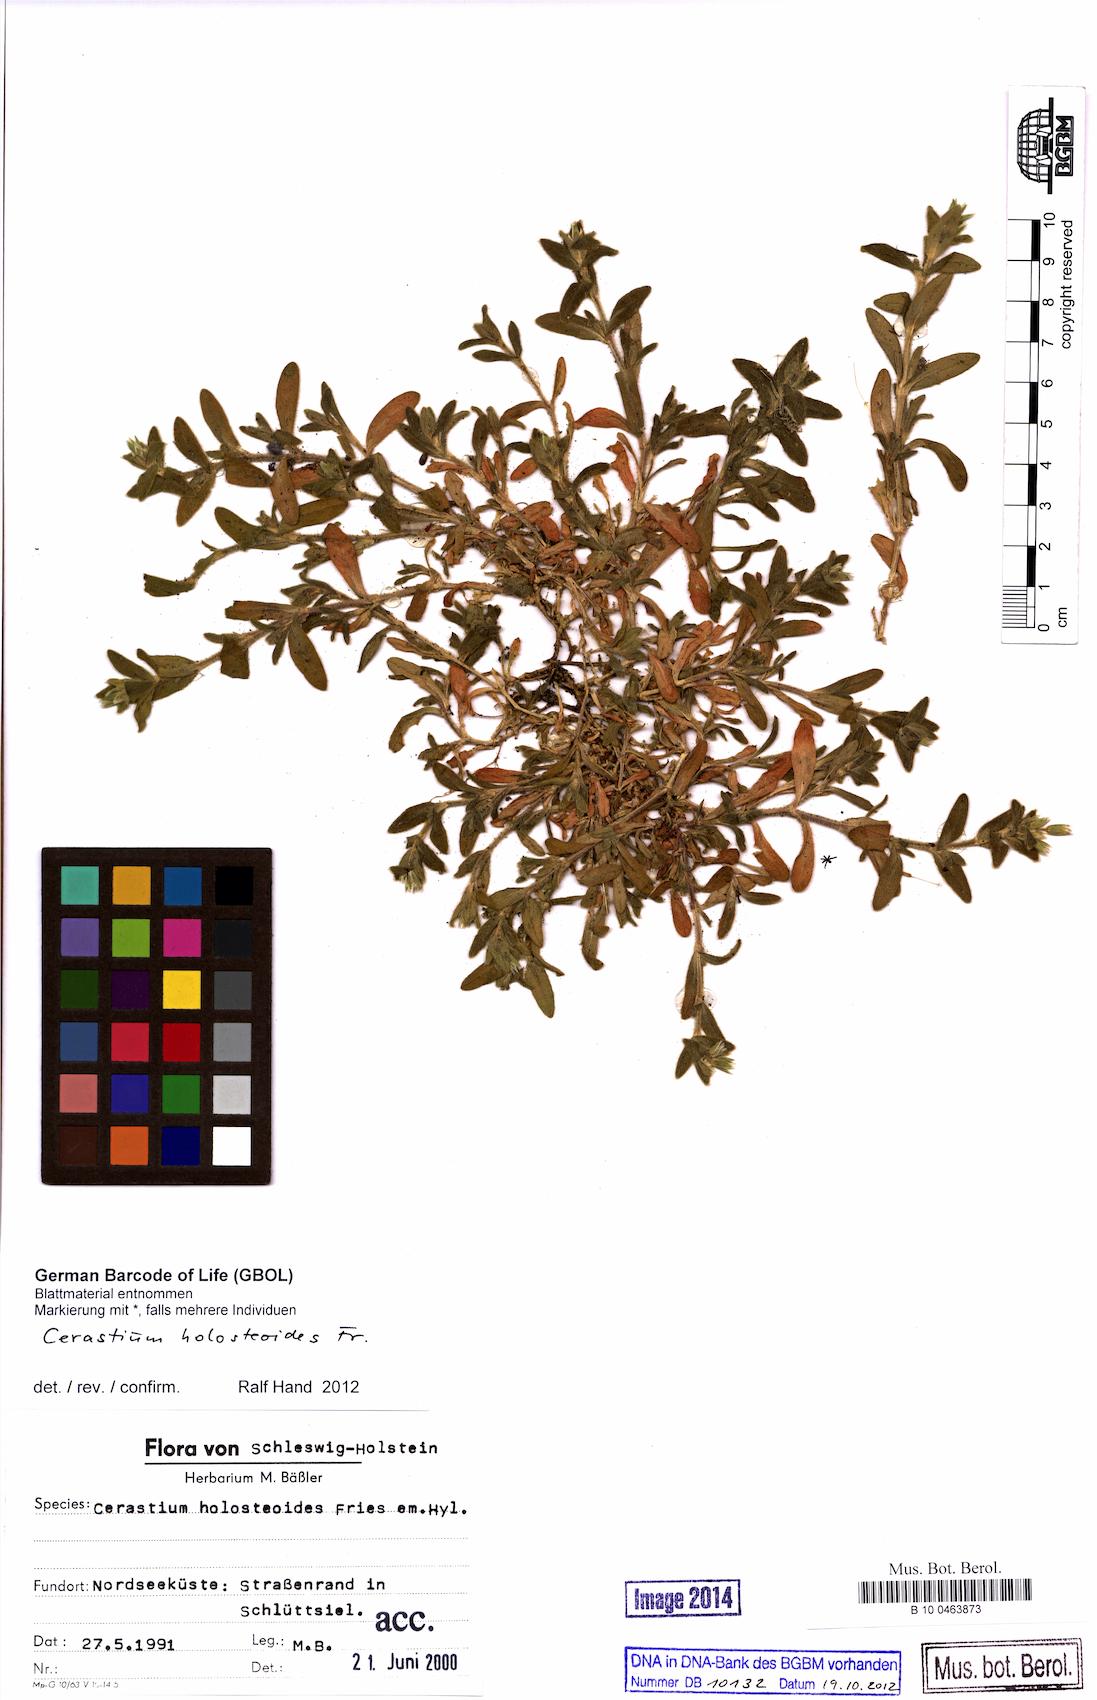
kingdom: Plantae
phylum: Tracheophyta
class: Magnoliopsida
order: Caryophyllales
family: Caryophyllaceae
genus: Cerastium
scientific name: Cerastium holosteoides
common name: Big chickweed
